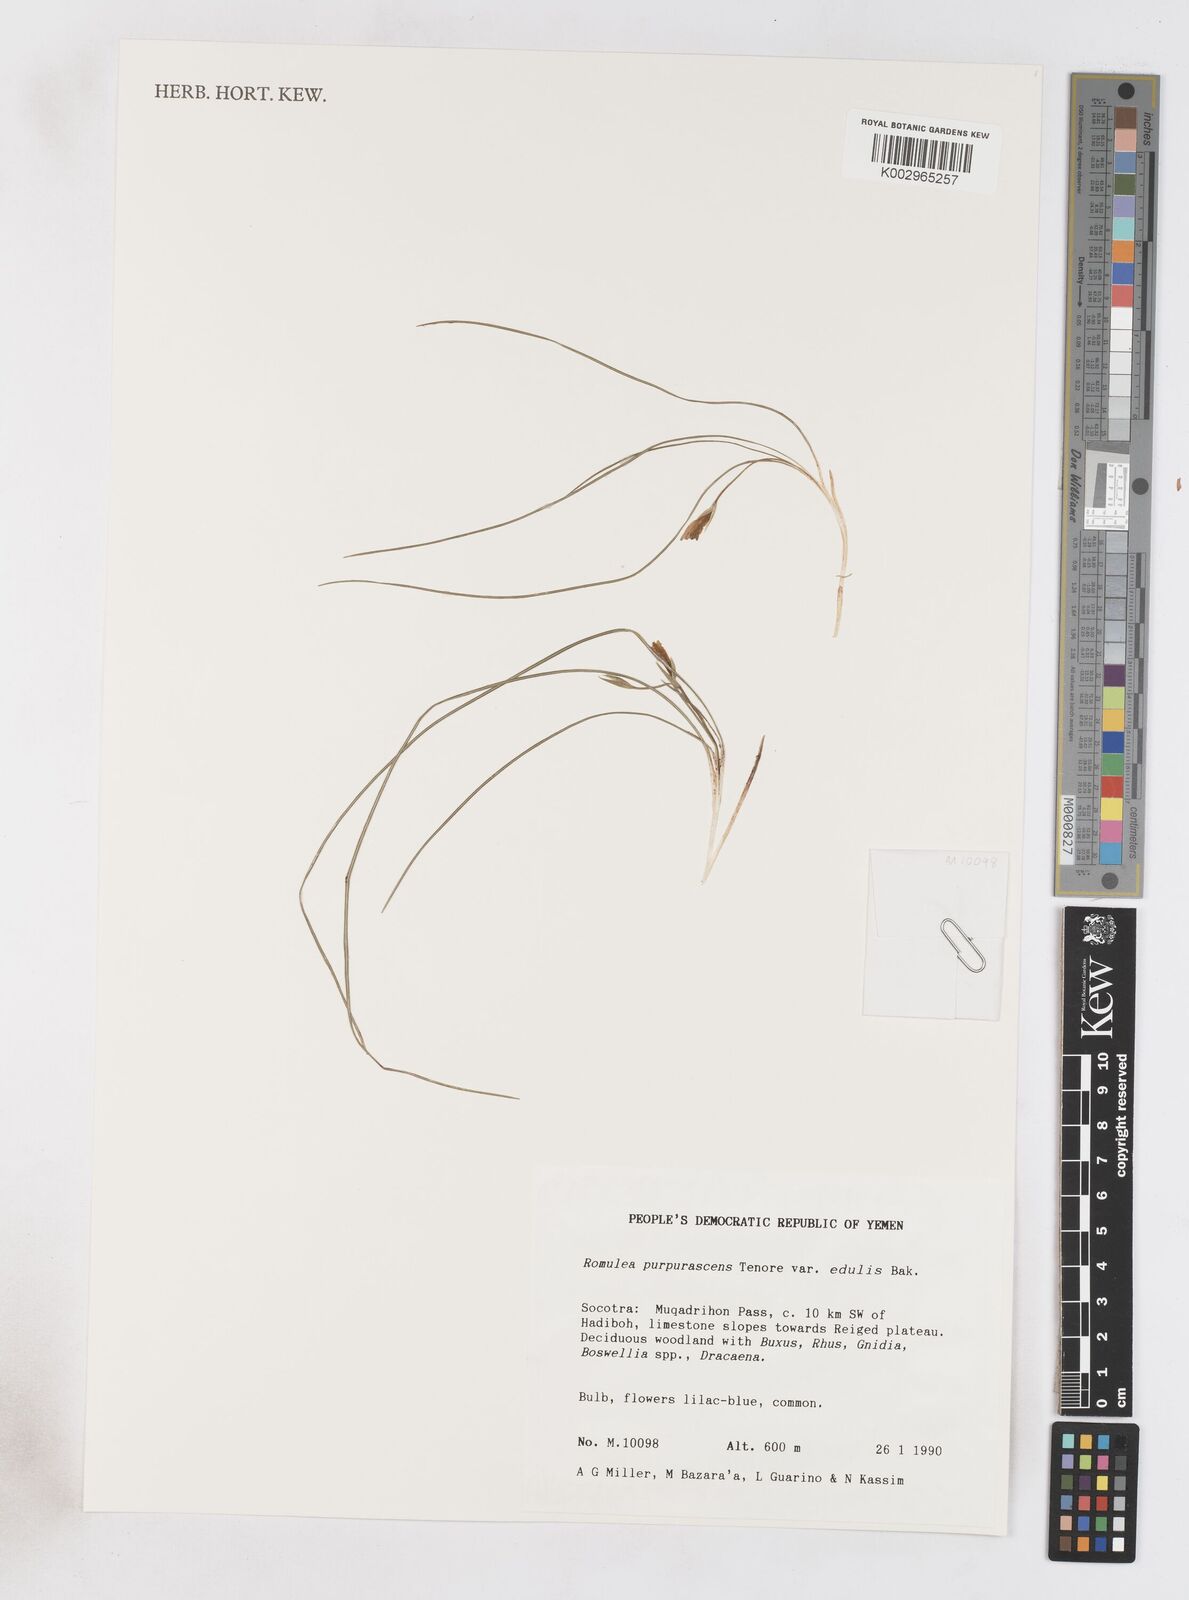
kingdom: Plantae
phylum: Tracheophyta
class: Liliopsida
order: Asparagales
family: Iridaceae
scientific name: Iridaceae
